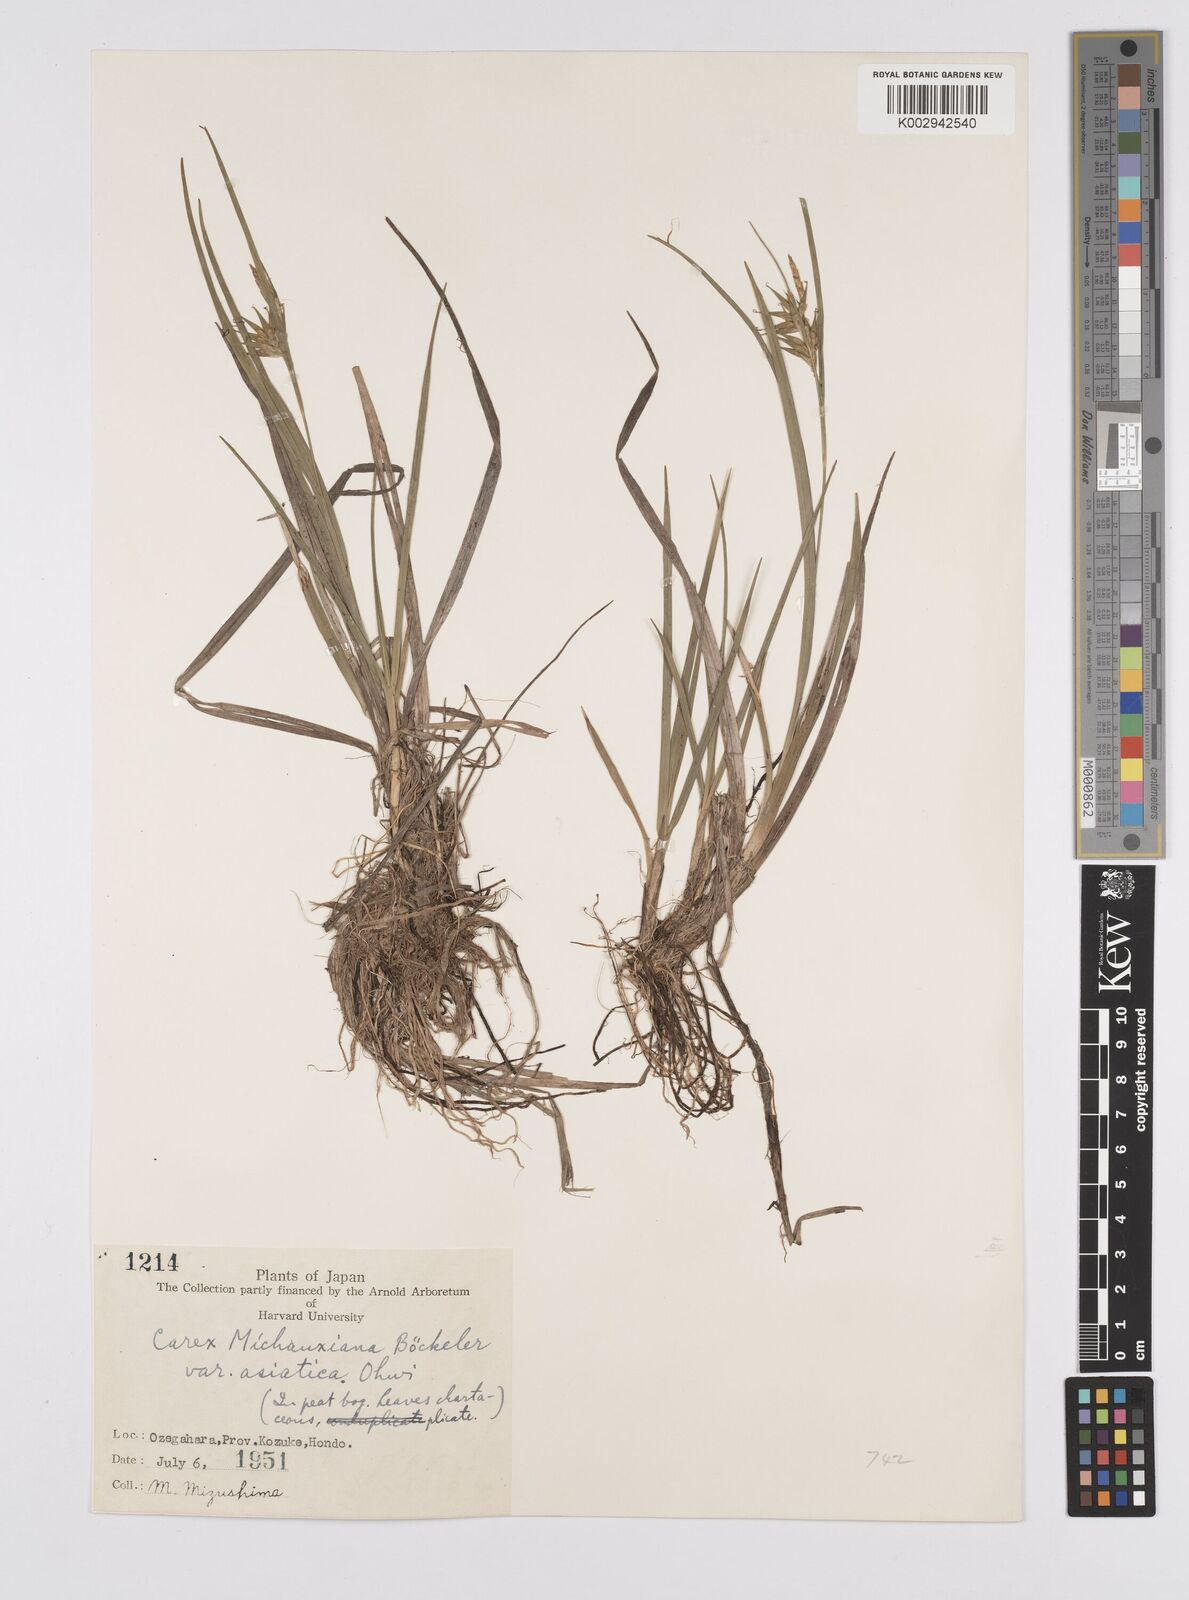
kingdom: Plantae
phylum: Tracheophyta
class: Liliopsida
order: Poales
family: Cyperaceae
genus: Carex
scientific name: Carex michauxiana
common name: Michaux's sedge
